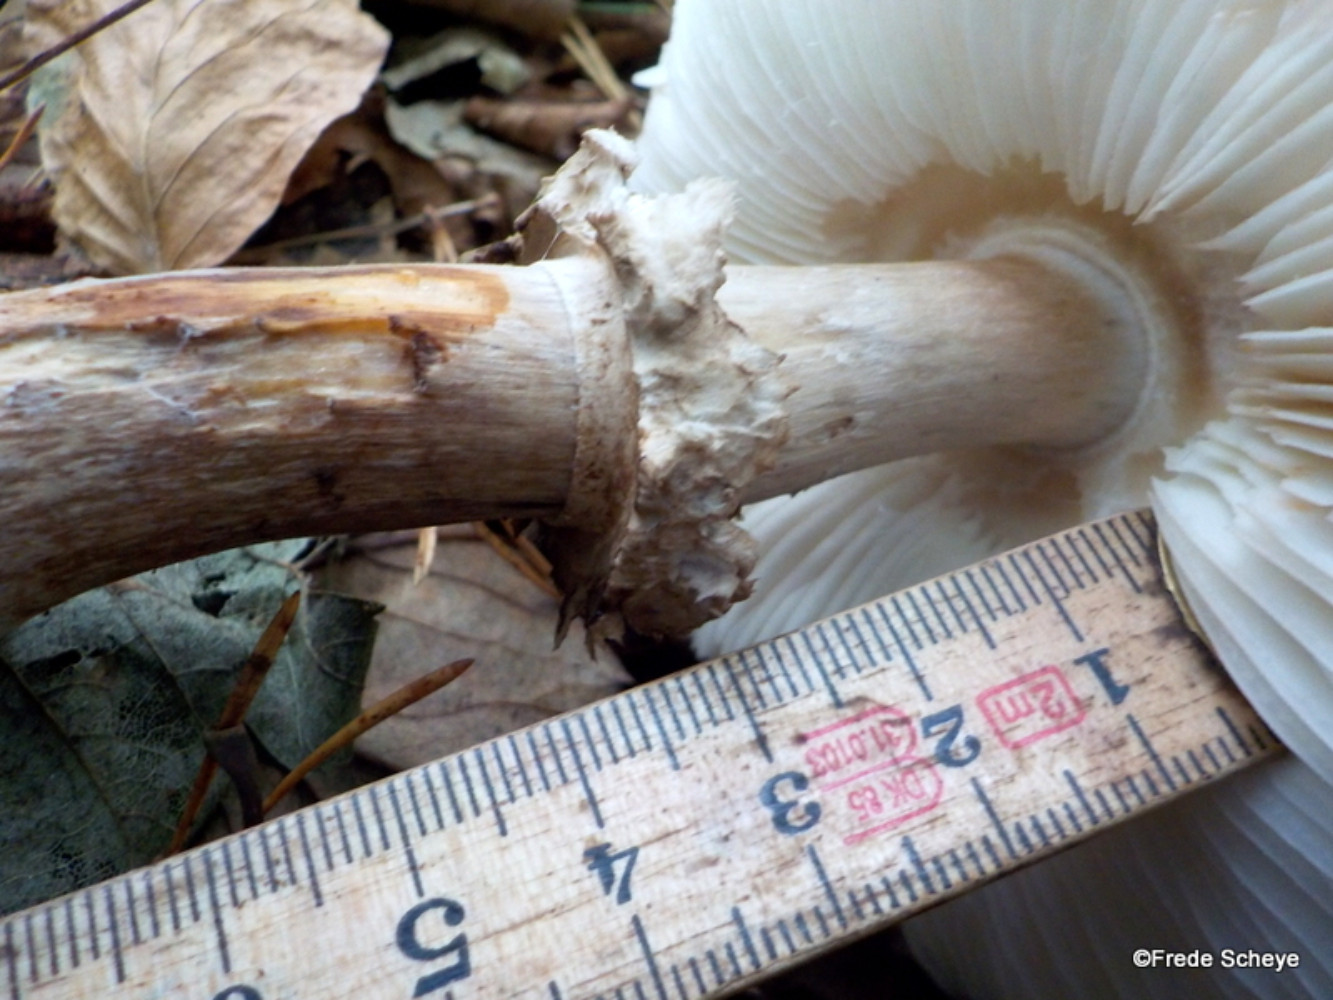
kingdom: Fungi
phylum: Basidiomycota
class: Agaricomycetes
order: Agaricales
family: Agaricaceae
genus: Chlorophyllum
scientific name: Chlorophyllum rhacodes
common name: ægte rabarberhat
